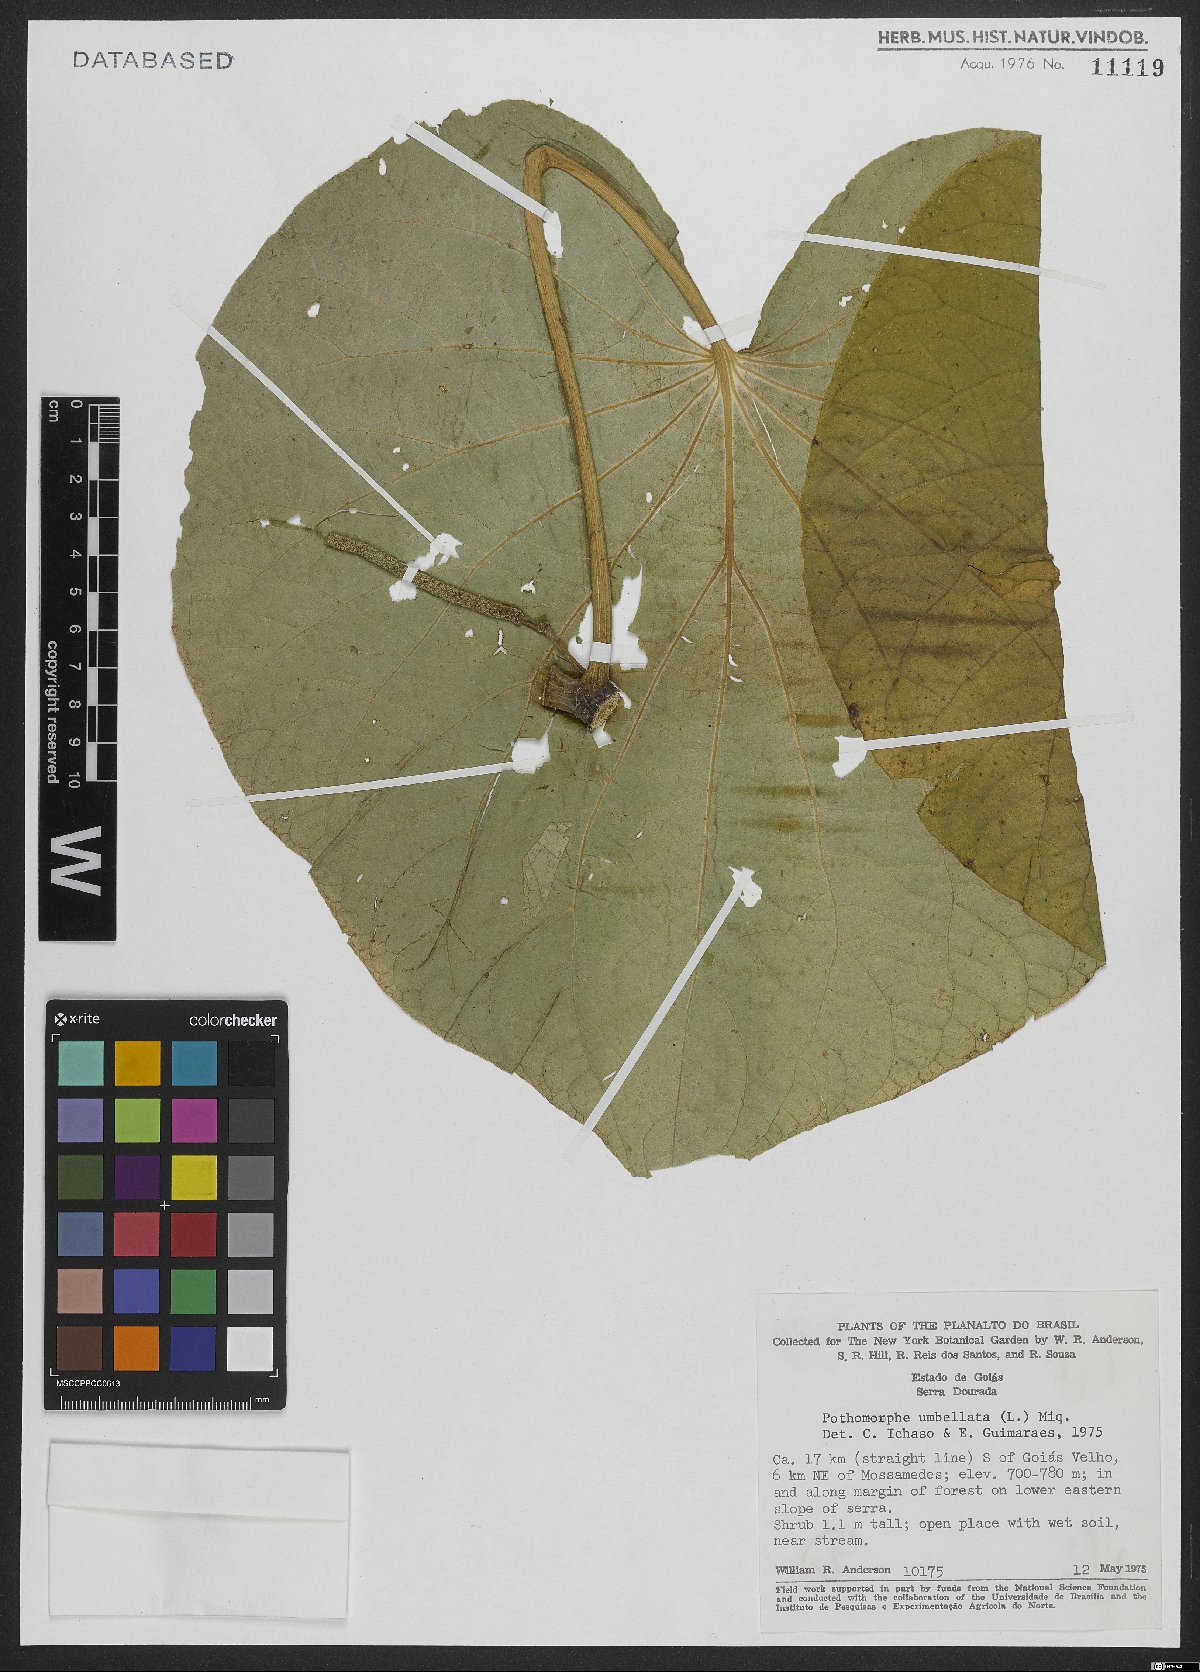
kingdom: Plantae
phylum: Tracheophyta
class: Magnoliopsida
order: Piperales
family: Piperaceae
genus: Piper
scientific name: Piper umbellatum
